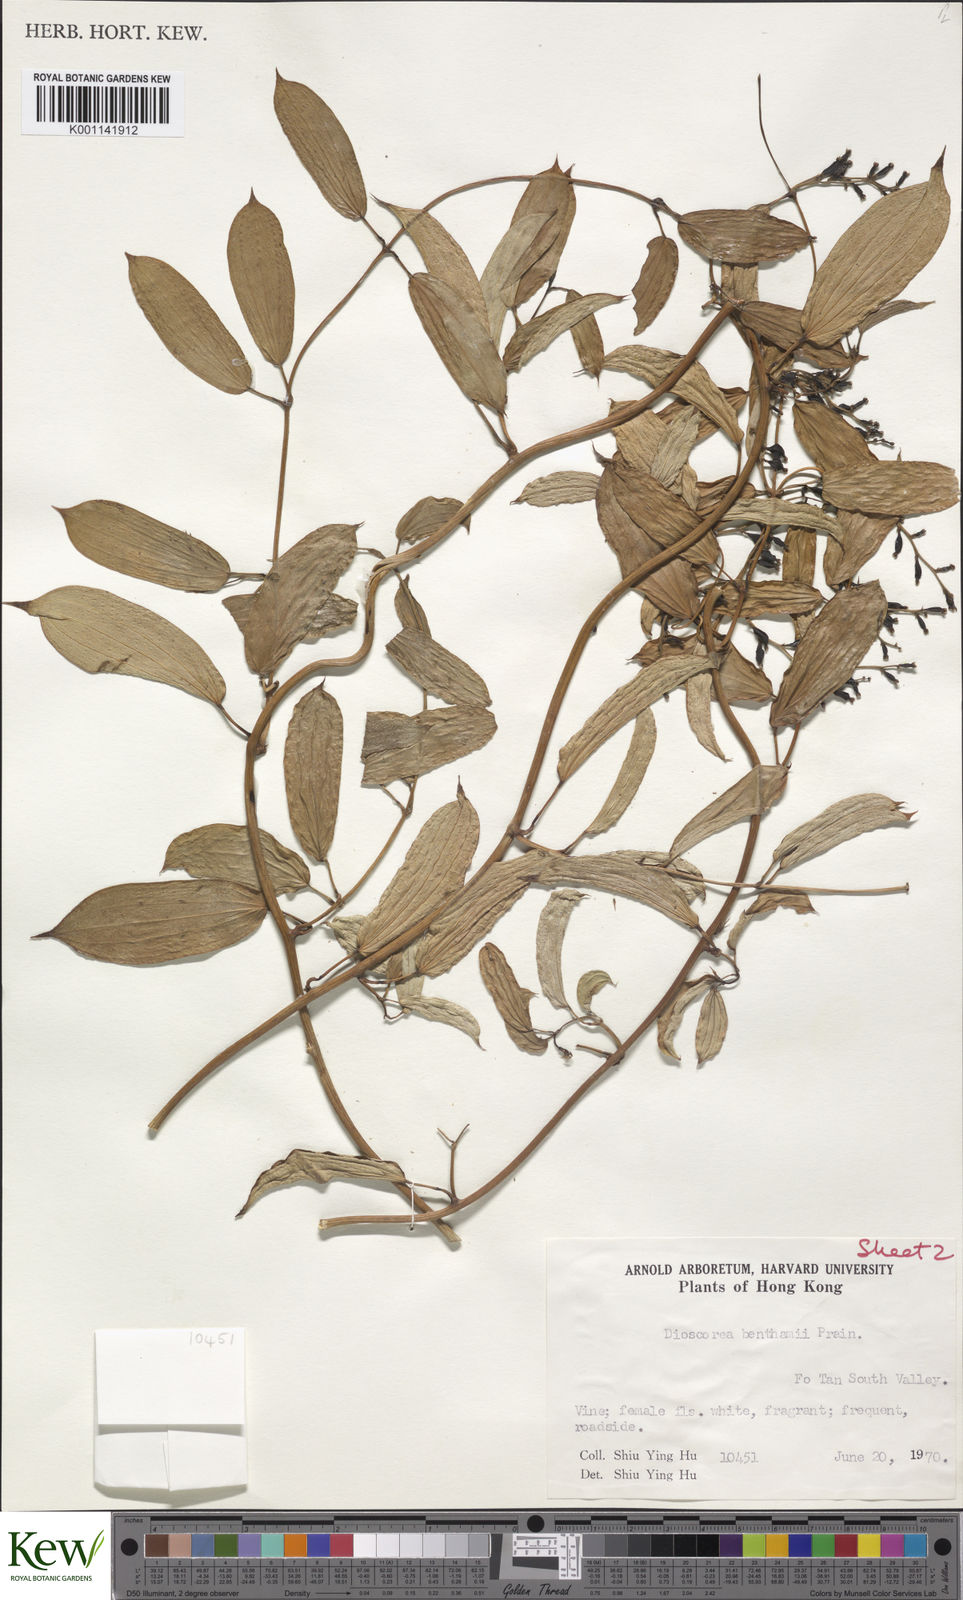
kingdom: Plantae
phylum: Tracheophyta
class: Liliopsida
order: Dioscoreales
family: Dioscoreaceae
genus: Dioscorea
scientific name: Dioscorea benthamii
